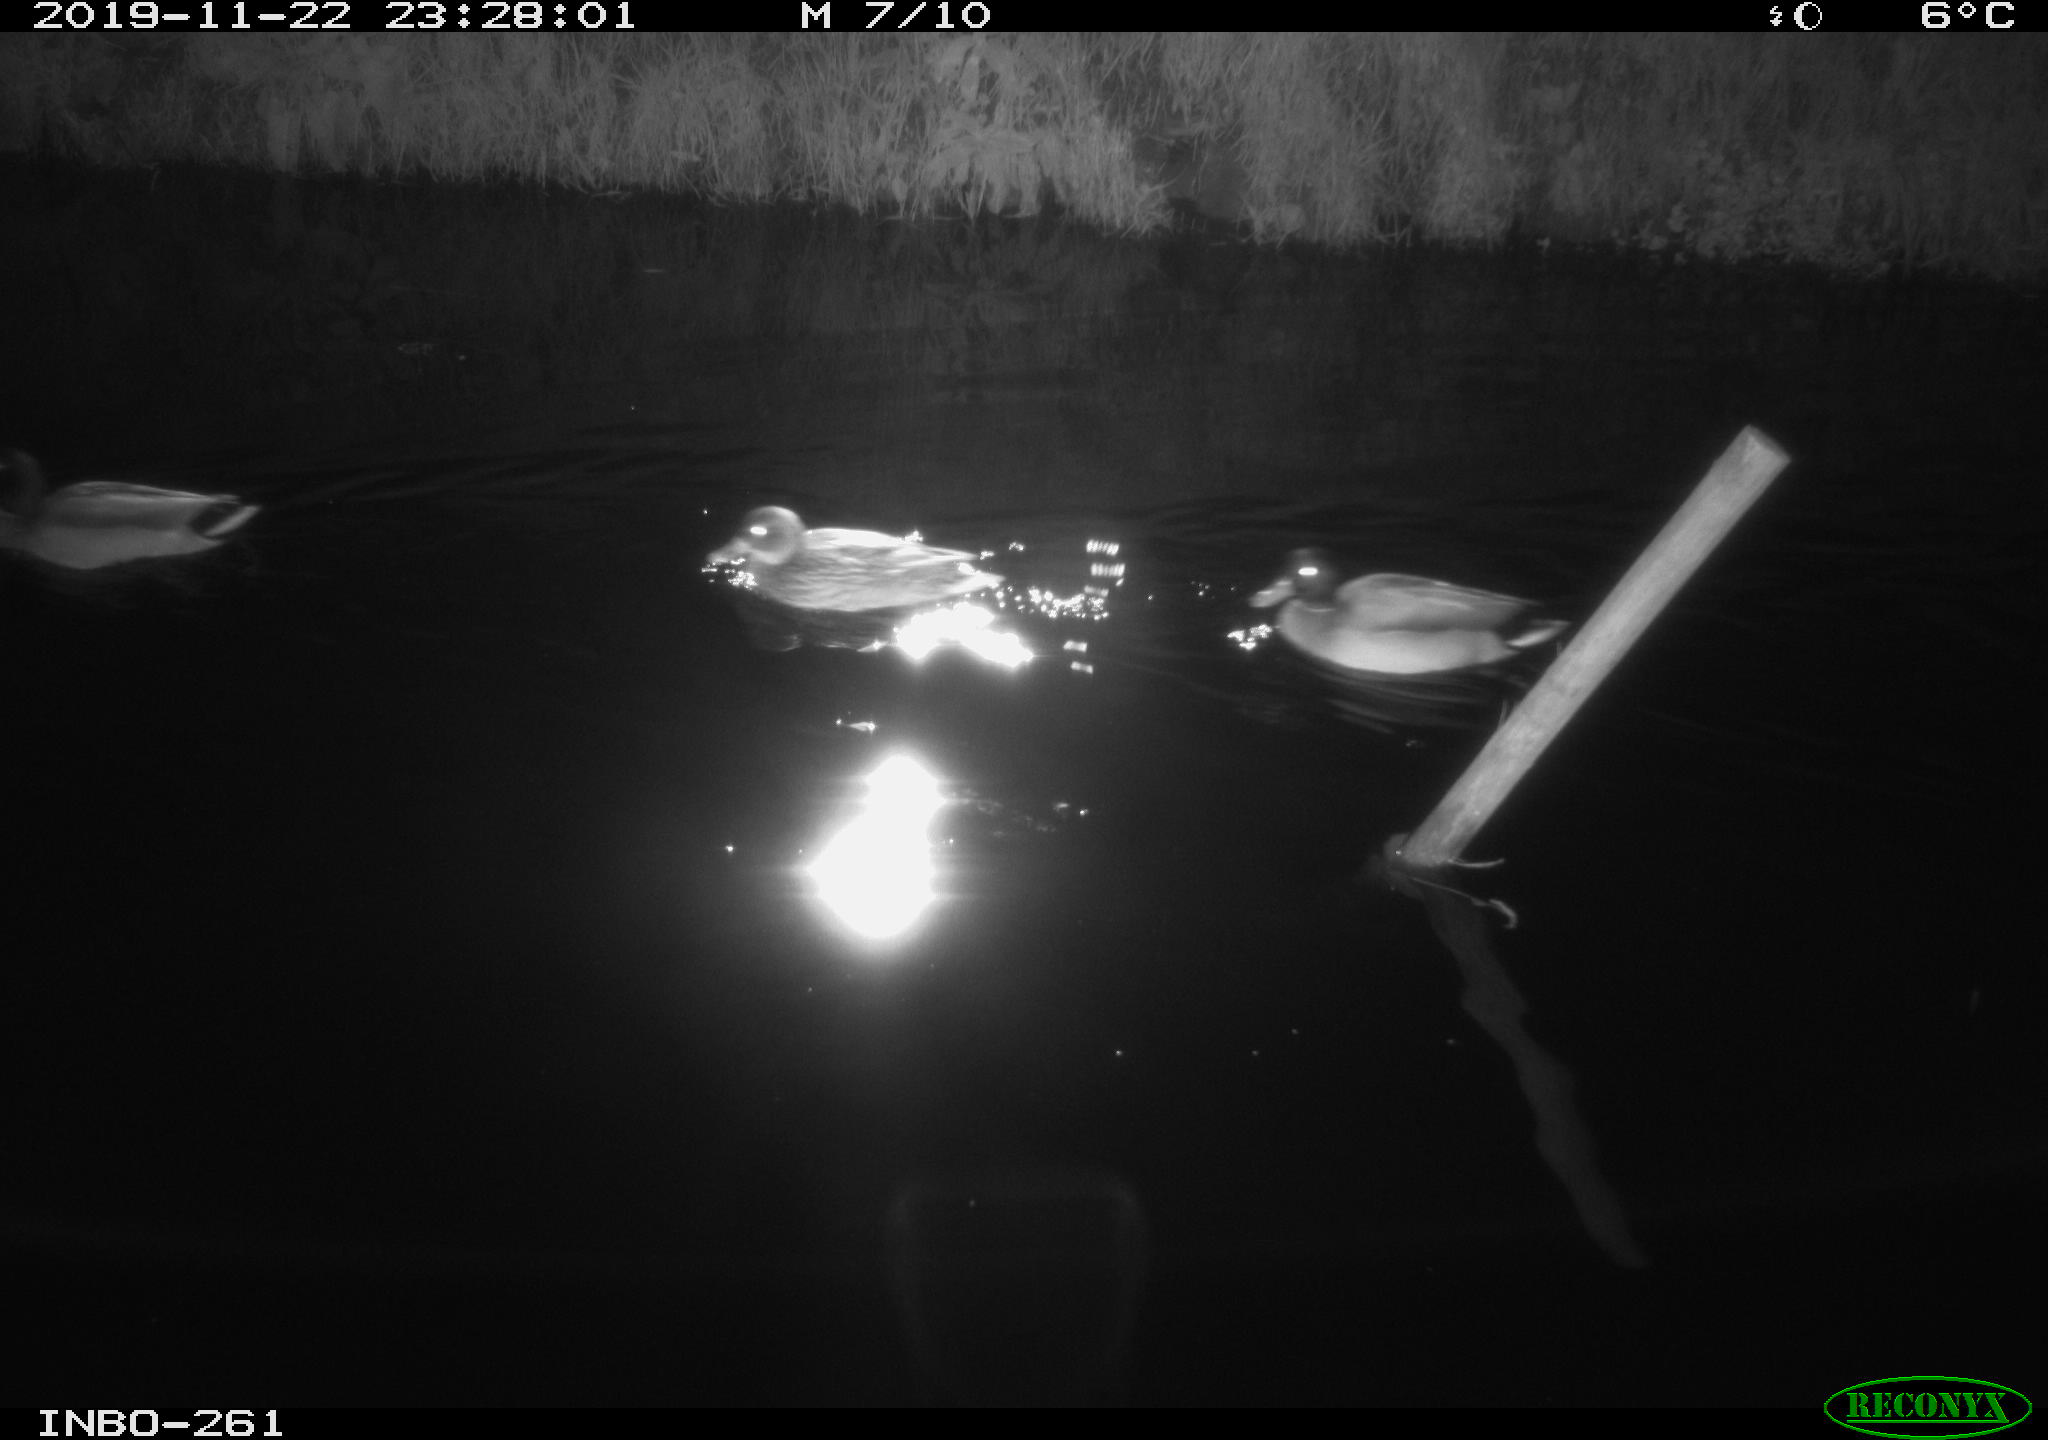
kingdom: Animalia
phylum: Chordata
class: Aves
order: Anseriformes
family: Anatidae
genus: Anas
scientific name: Anas platyrhynchos
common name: Mallard
